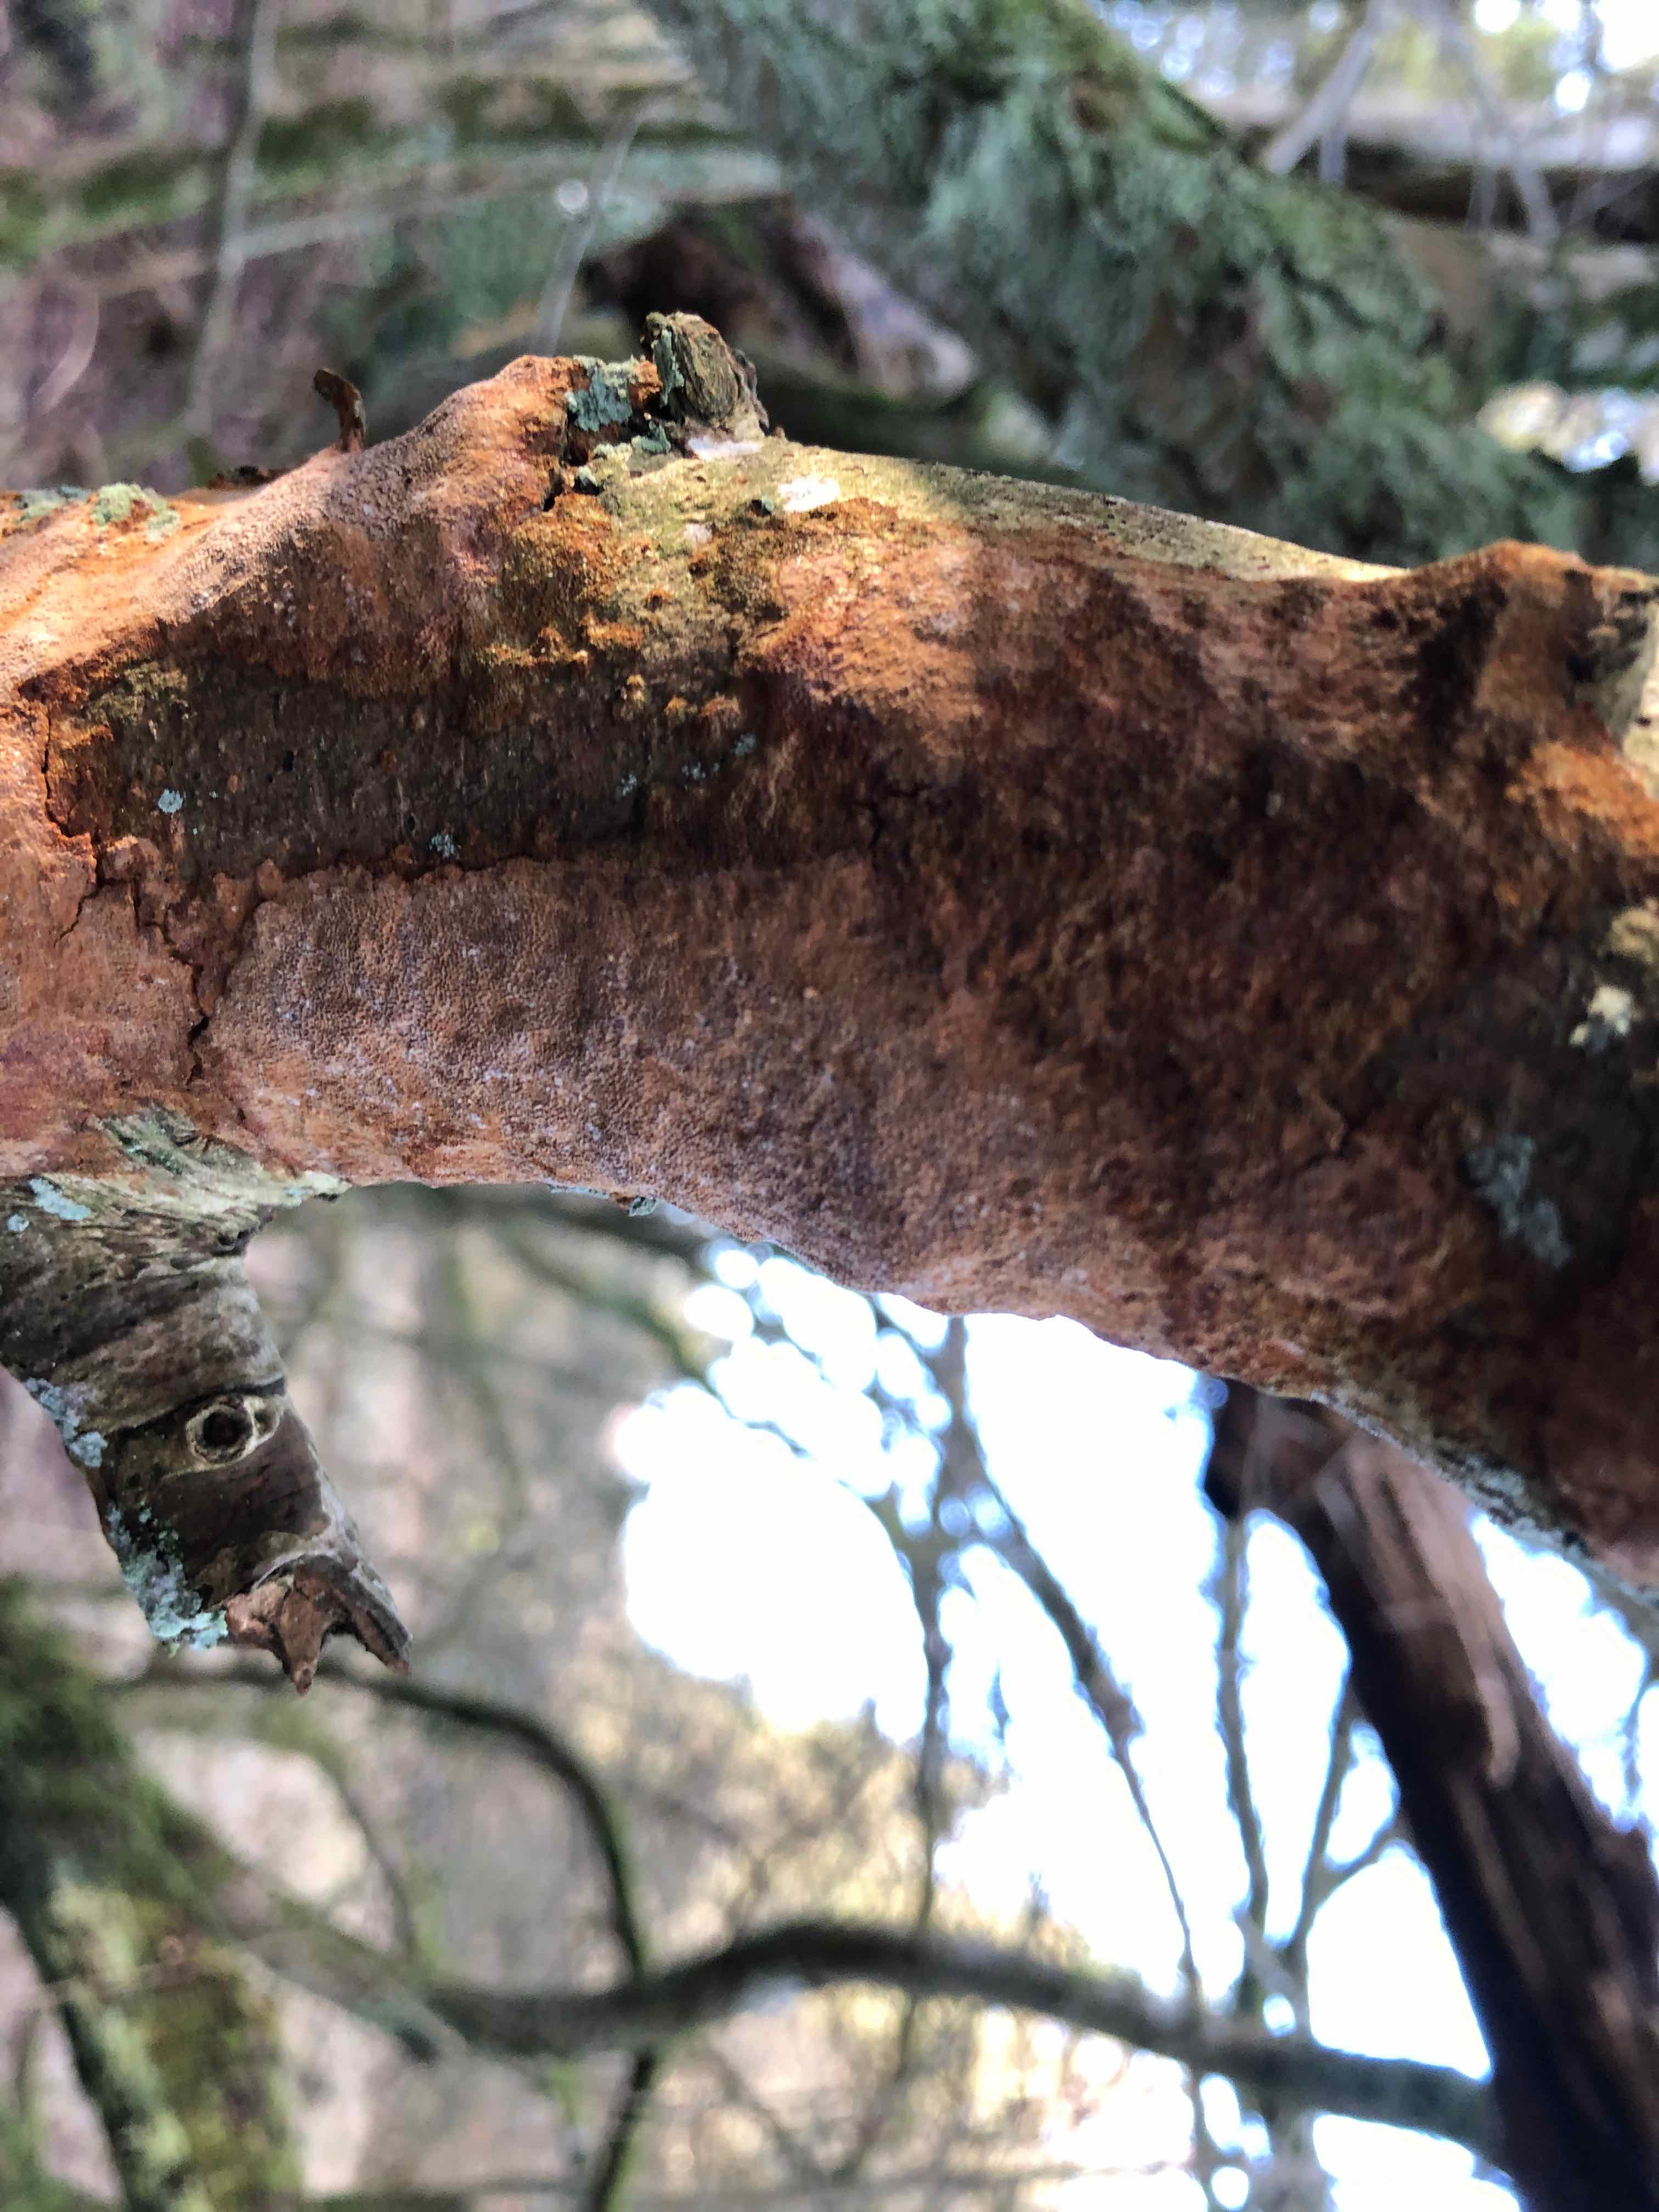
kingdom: Fungi
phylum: Basidiomycota
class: Agaricomycetes
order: Hymenochaetales
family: Hymenochaetaceae
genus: Fuscoporia
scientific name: Fuscoporia ferrea
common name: skorpe-ildporesvamp
